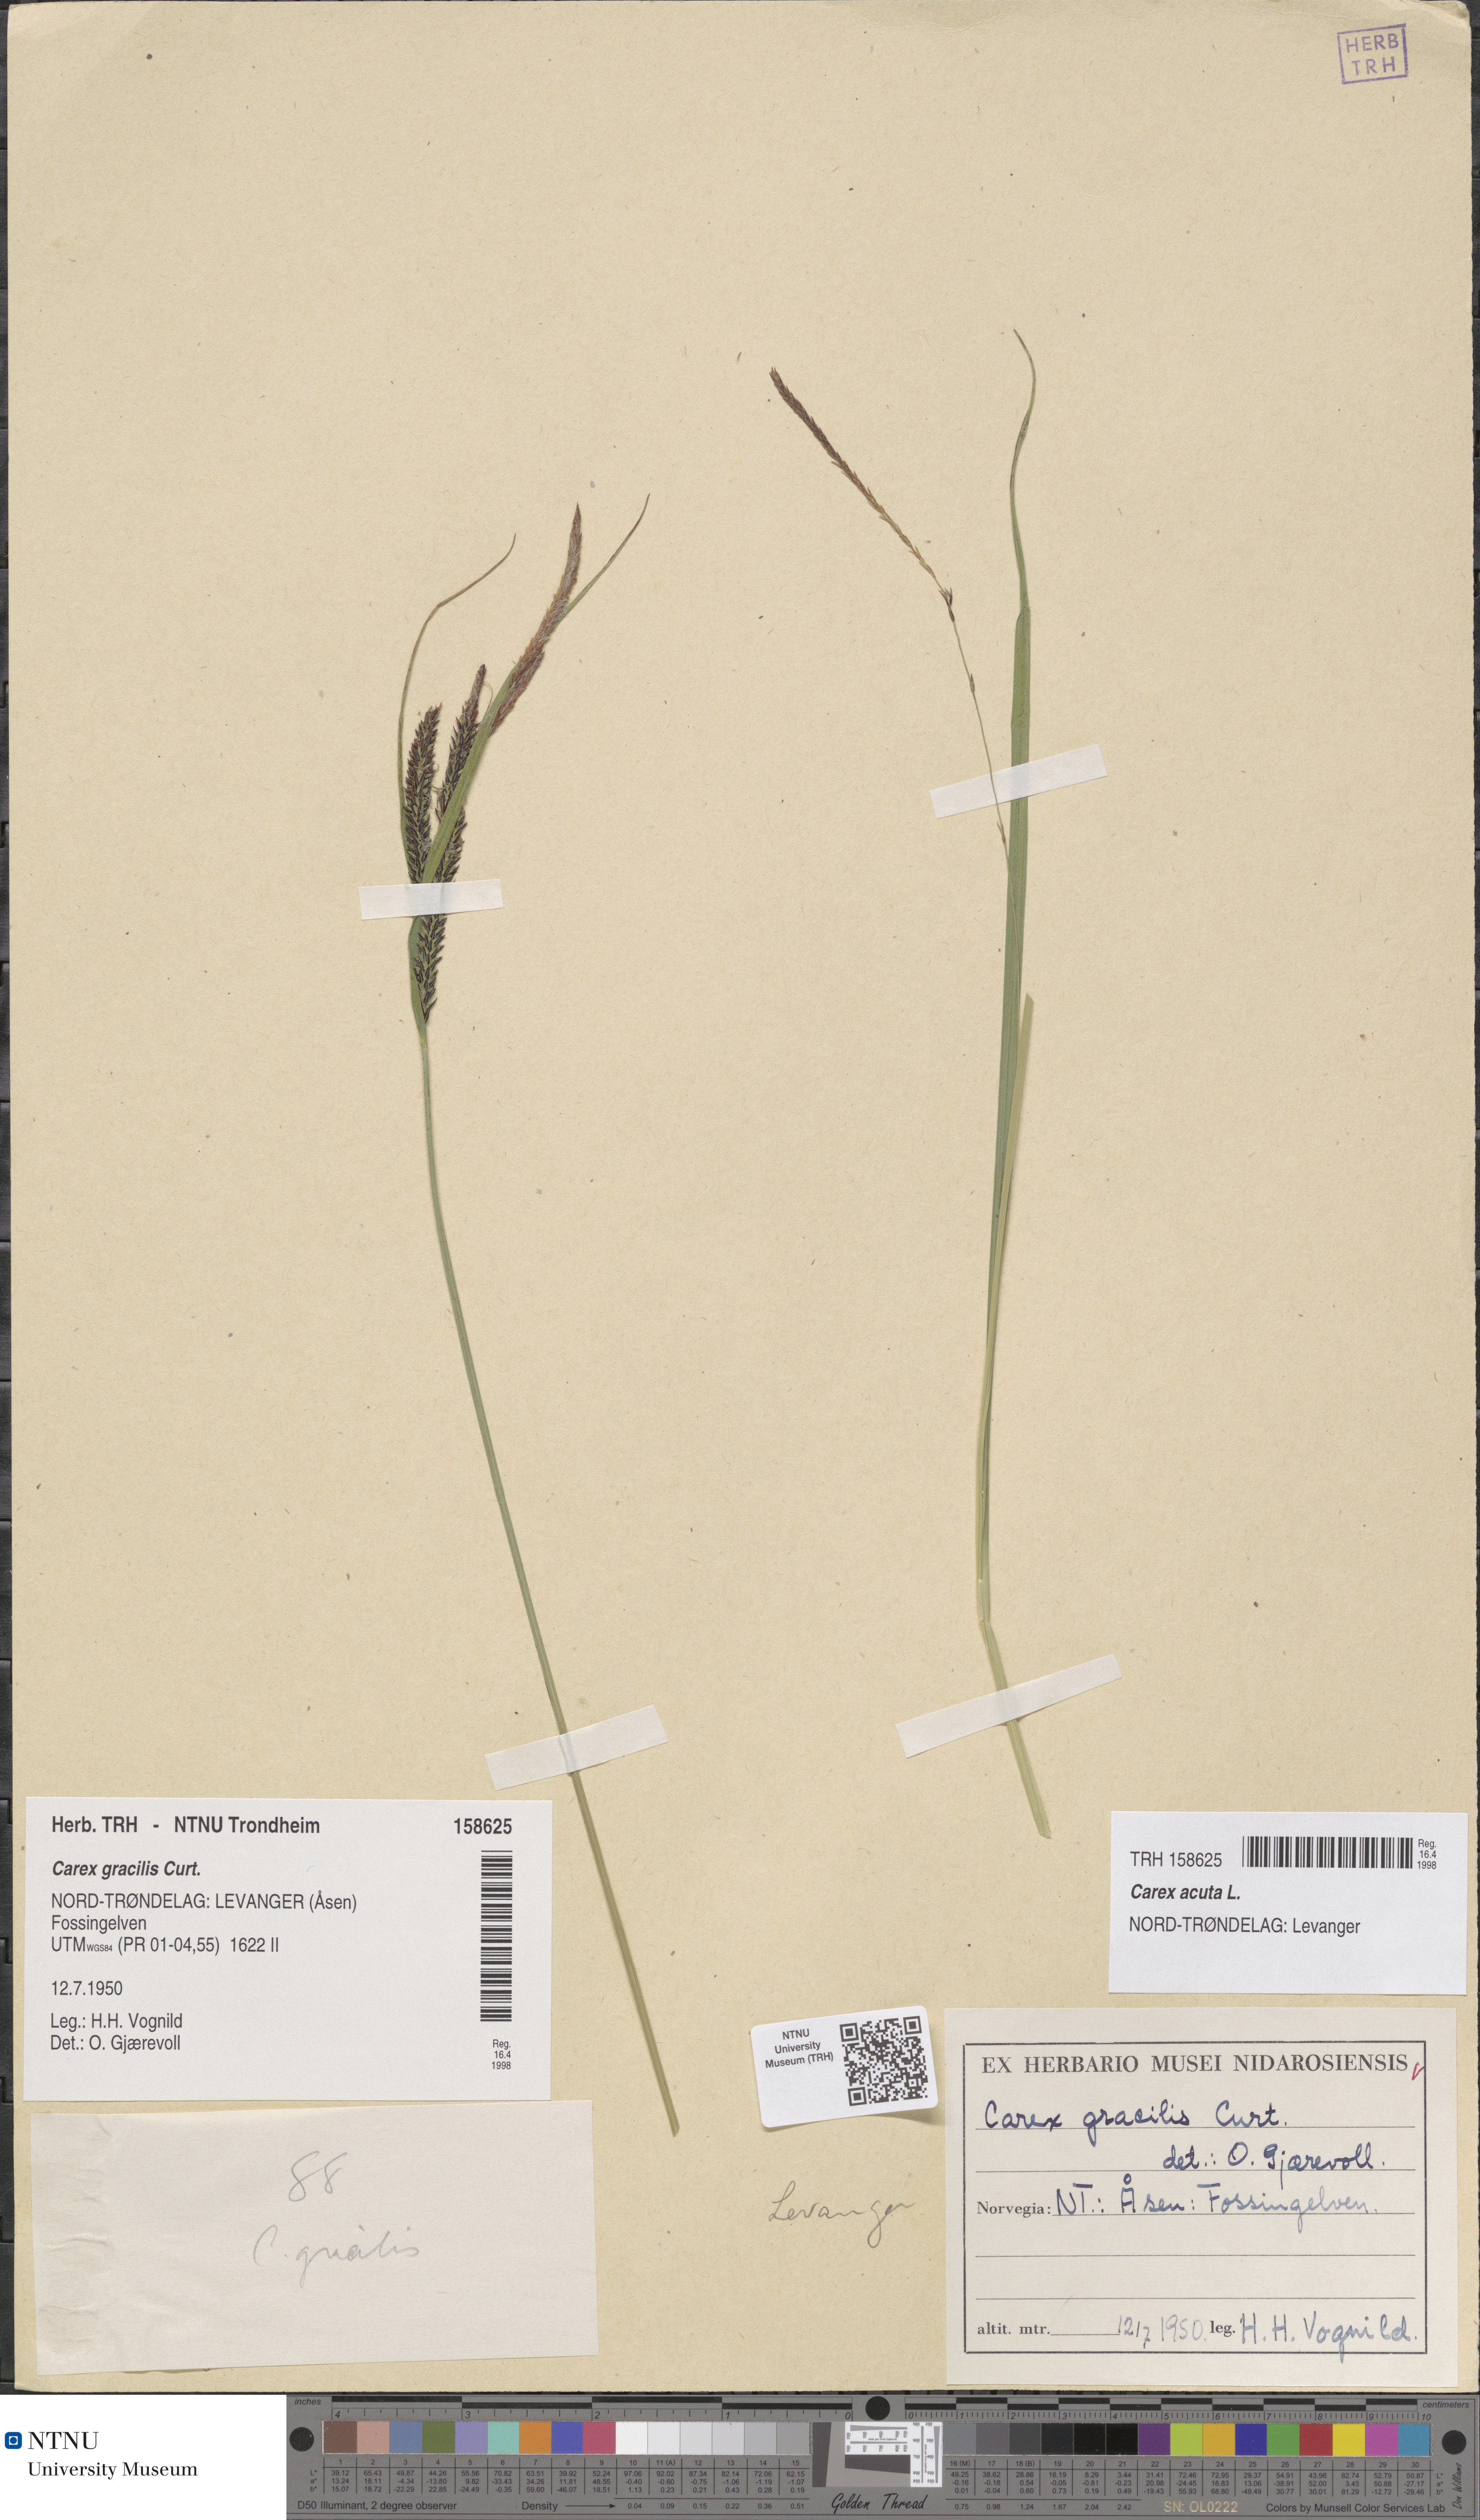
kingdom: Plantae
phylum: Tracheophyta
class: Liliopsida
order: Poales
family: Cyperaceae
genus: Carex
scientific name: Carex acuta
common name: Slender tufted-sedge
